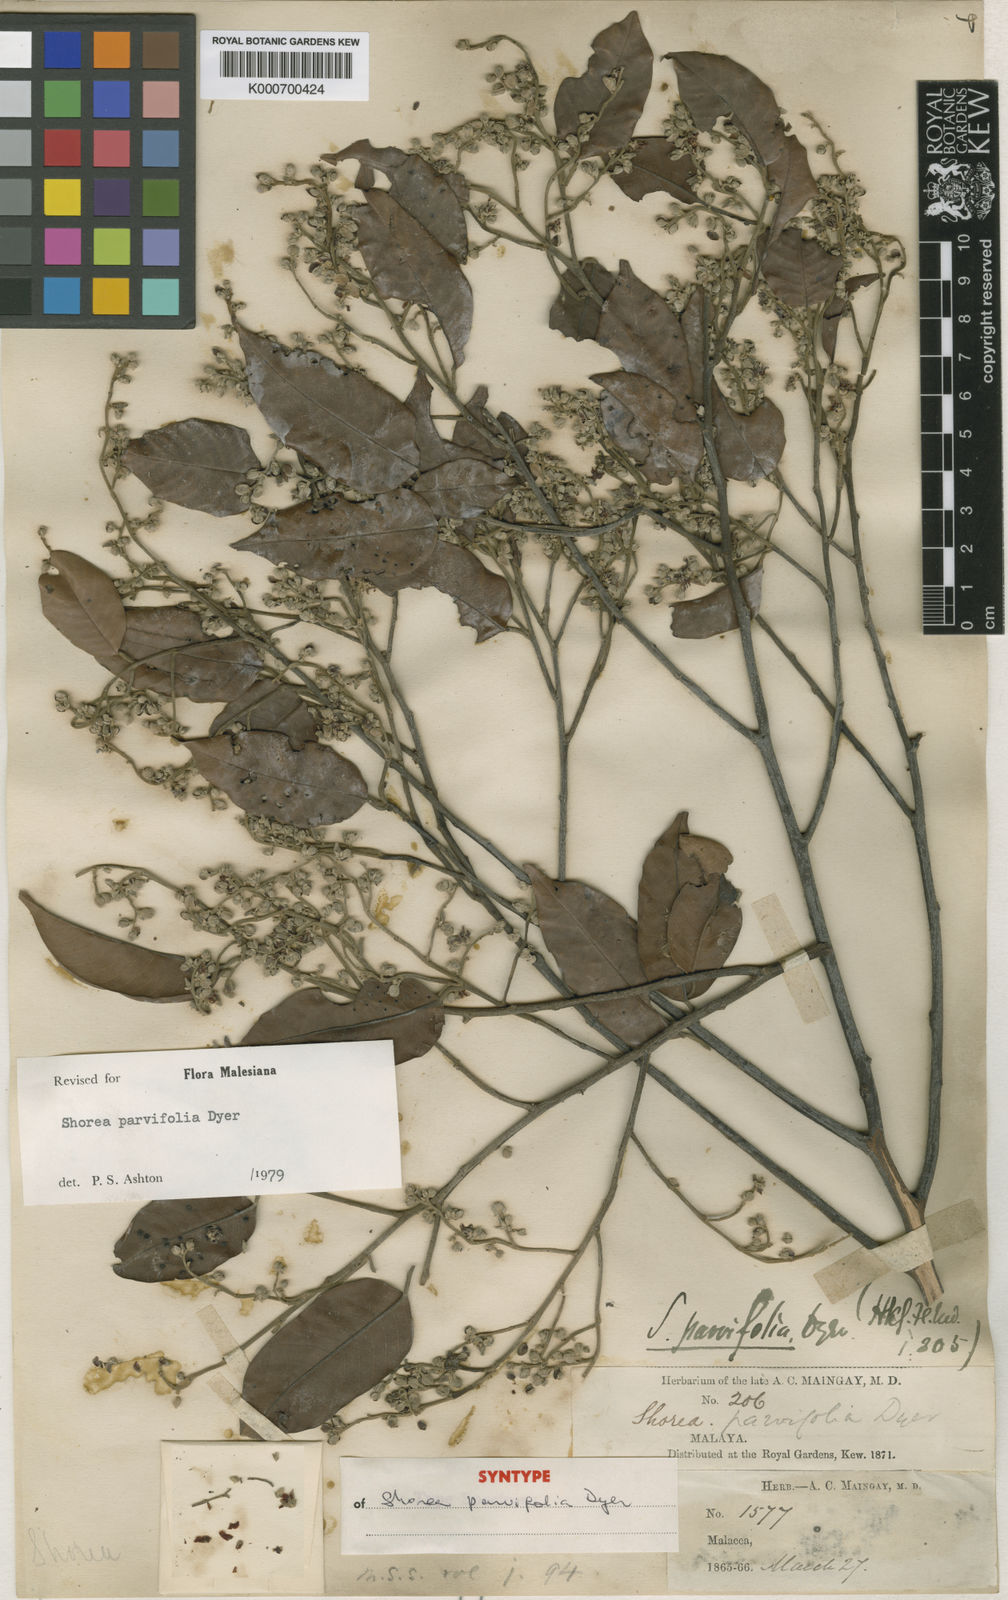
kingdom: Plantae
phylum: Tracheophyta
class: Magnoliopsida
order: Malvales
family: Dipterocarpaceae
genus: Shorea
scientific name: Shorea parvifolia
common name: Light red meranti
